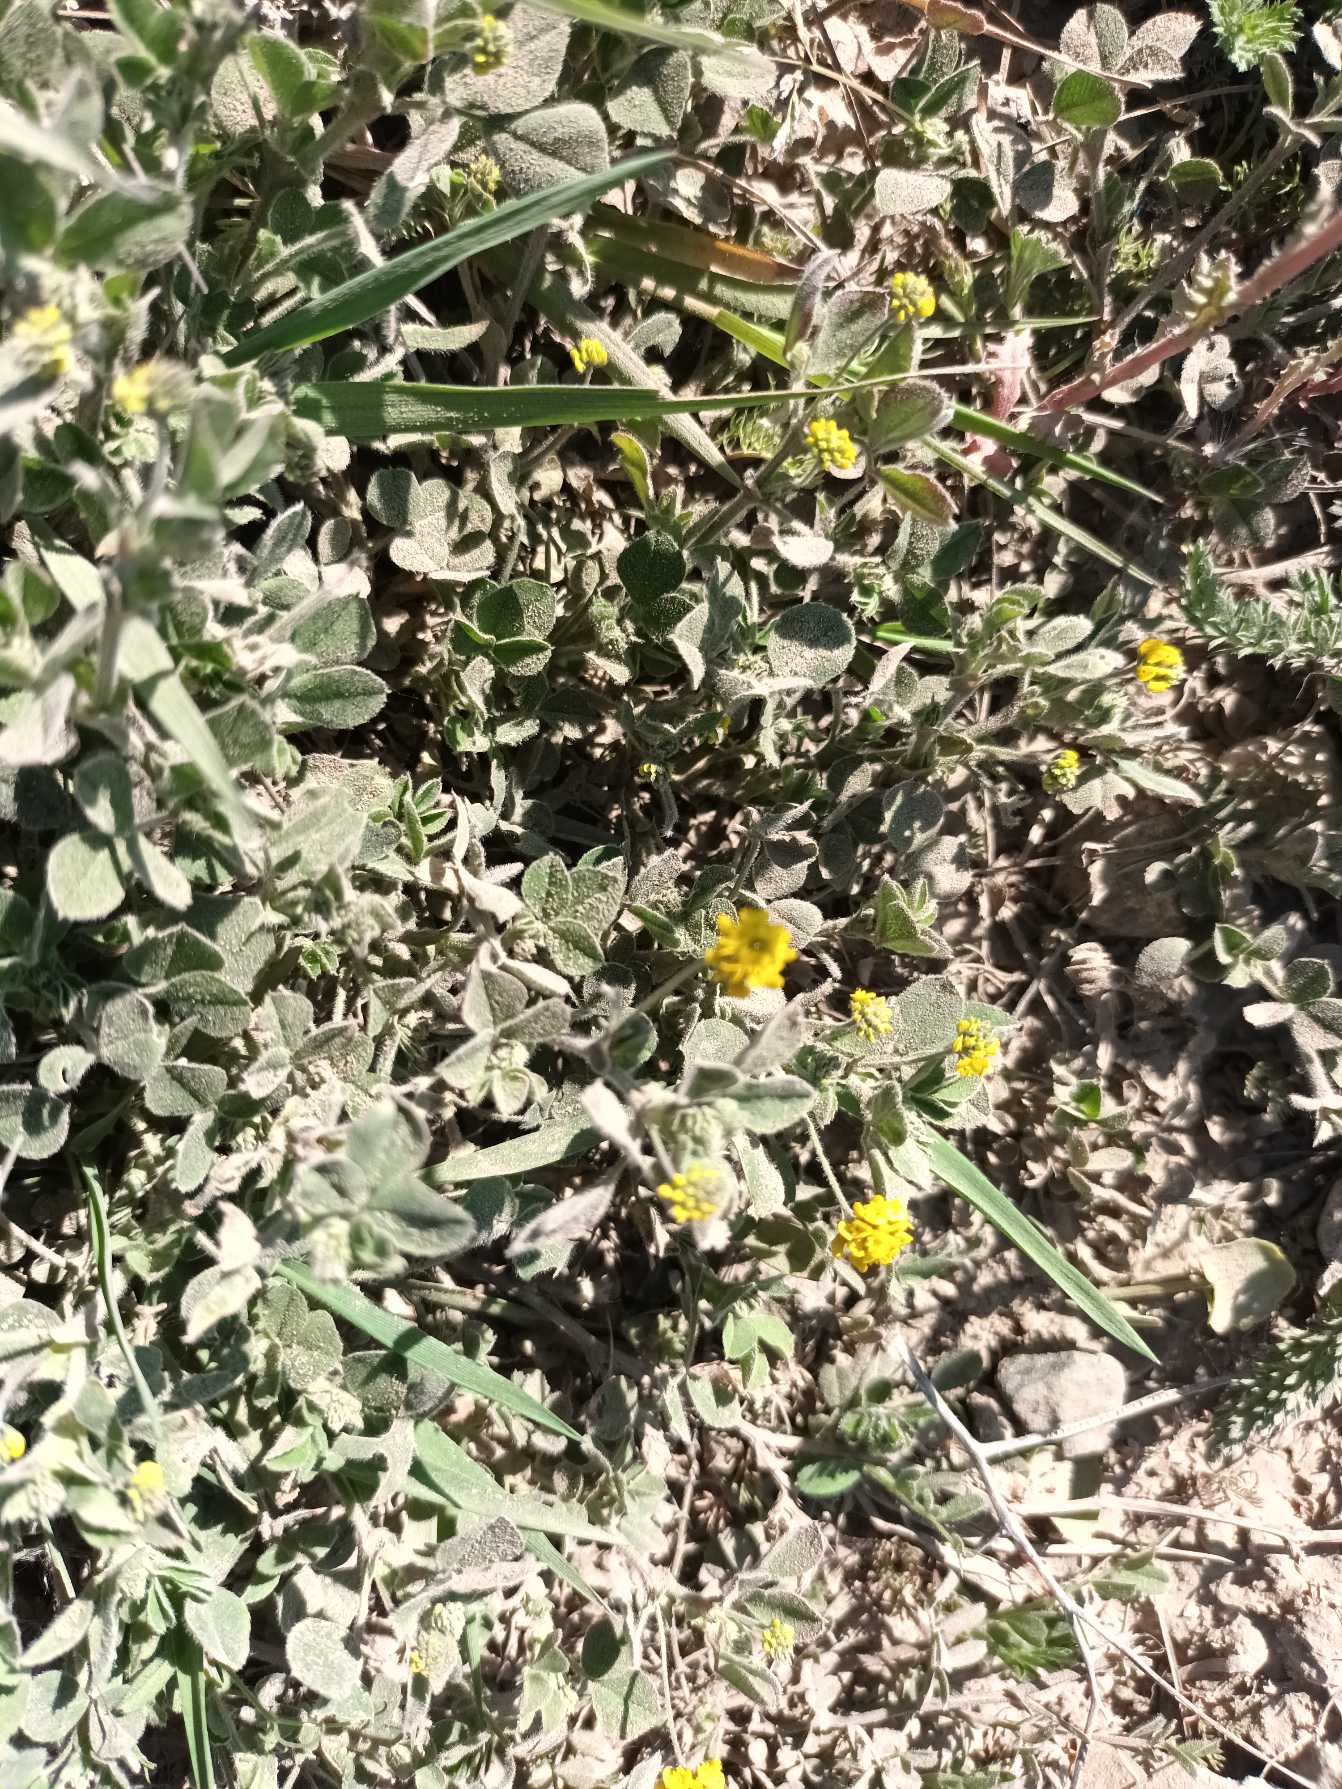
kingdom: Plantae
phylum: Tracheophyta
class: Magnoliopsida
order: Fabales
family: Fabaceae
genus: Medicago
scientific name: Medicago lupulina
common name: Humle-sneglebælg
